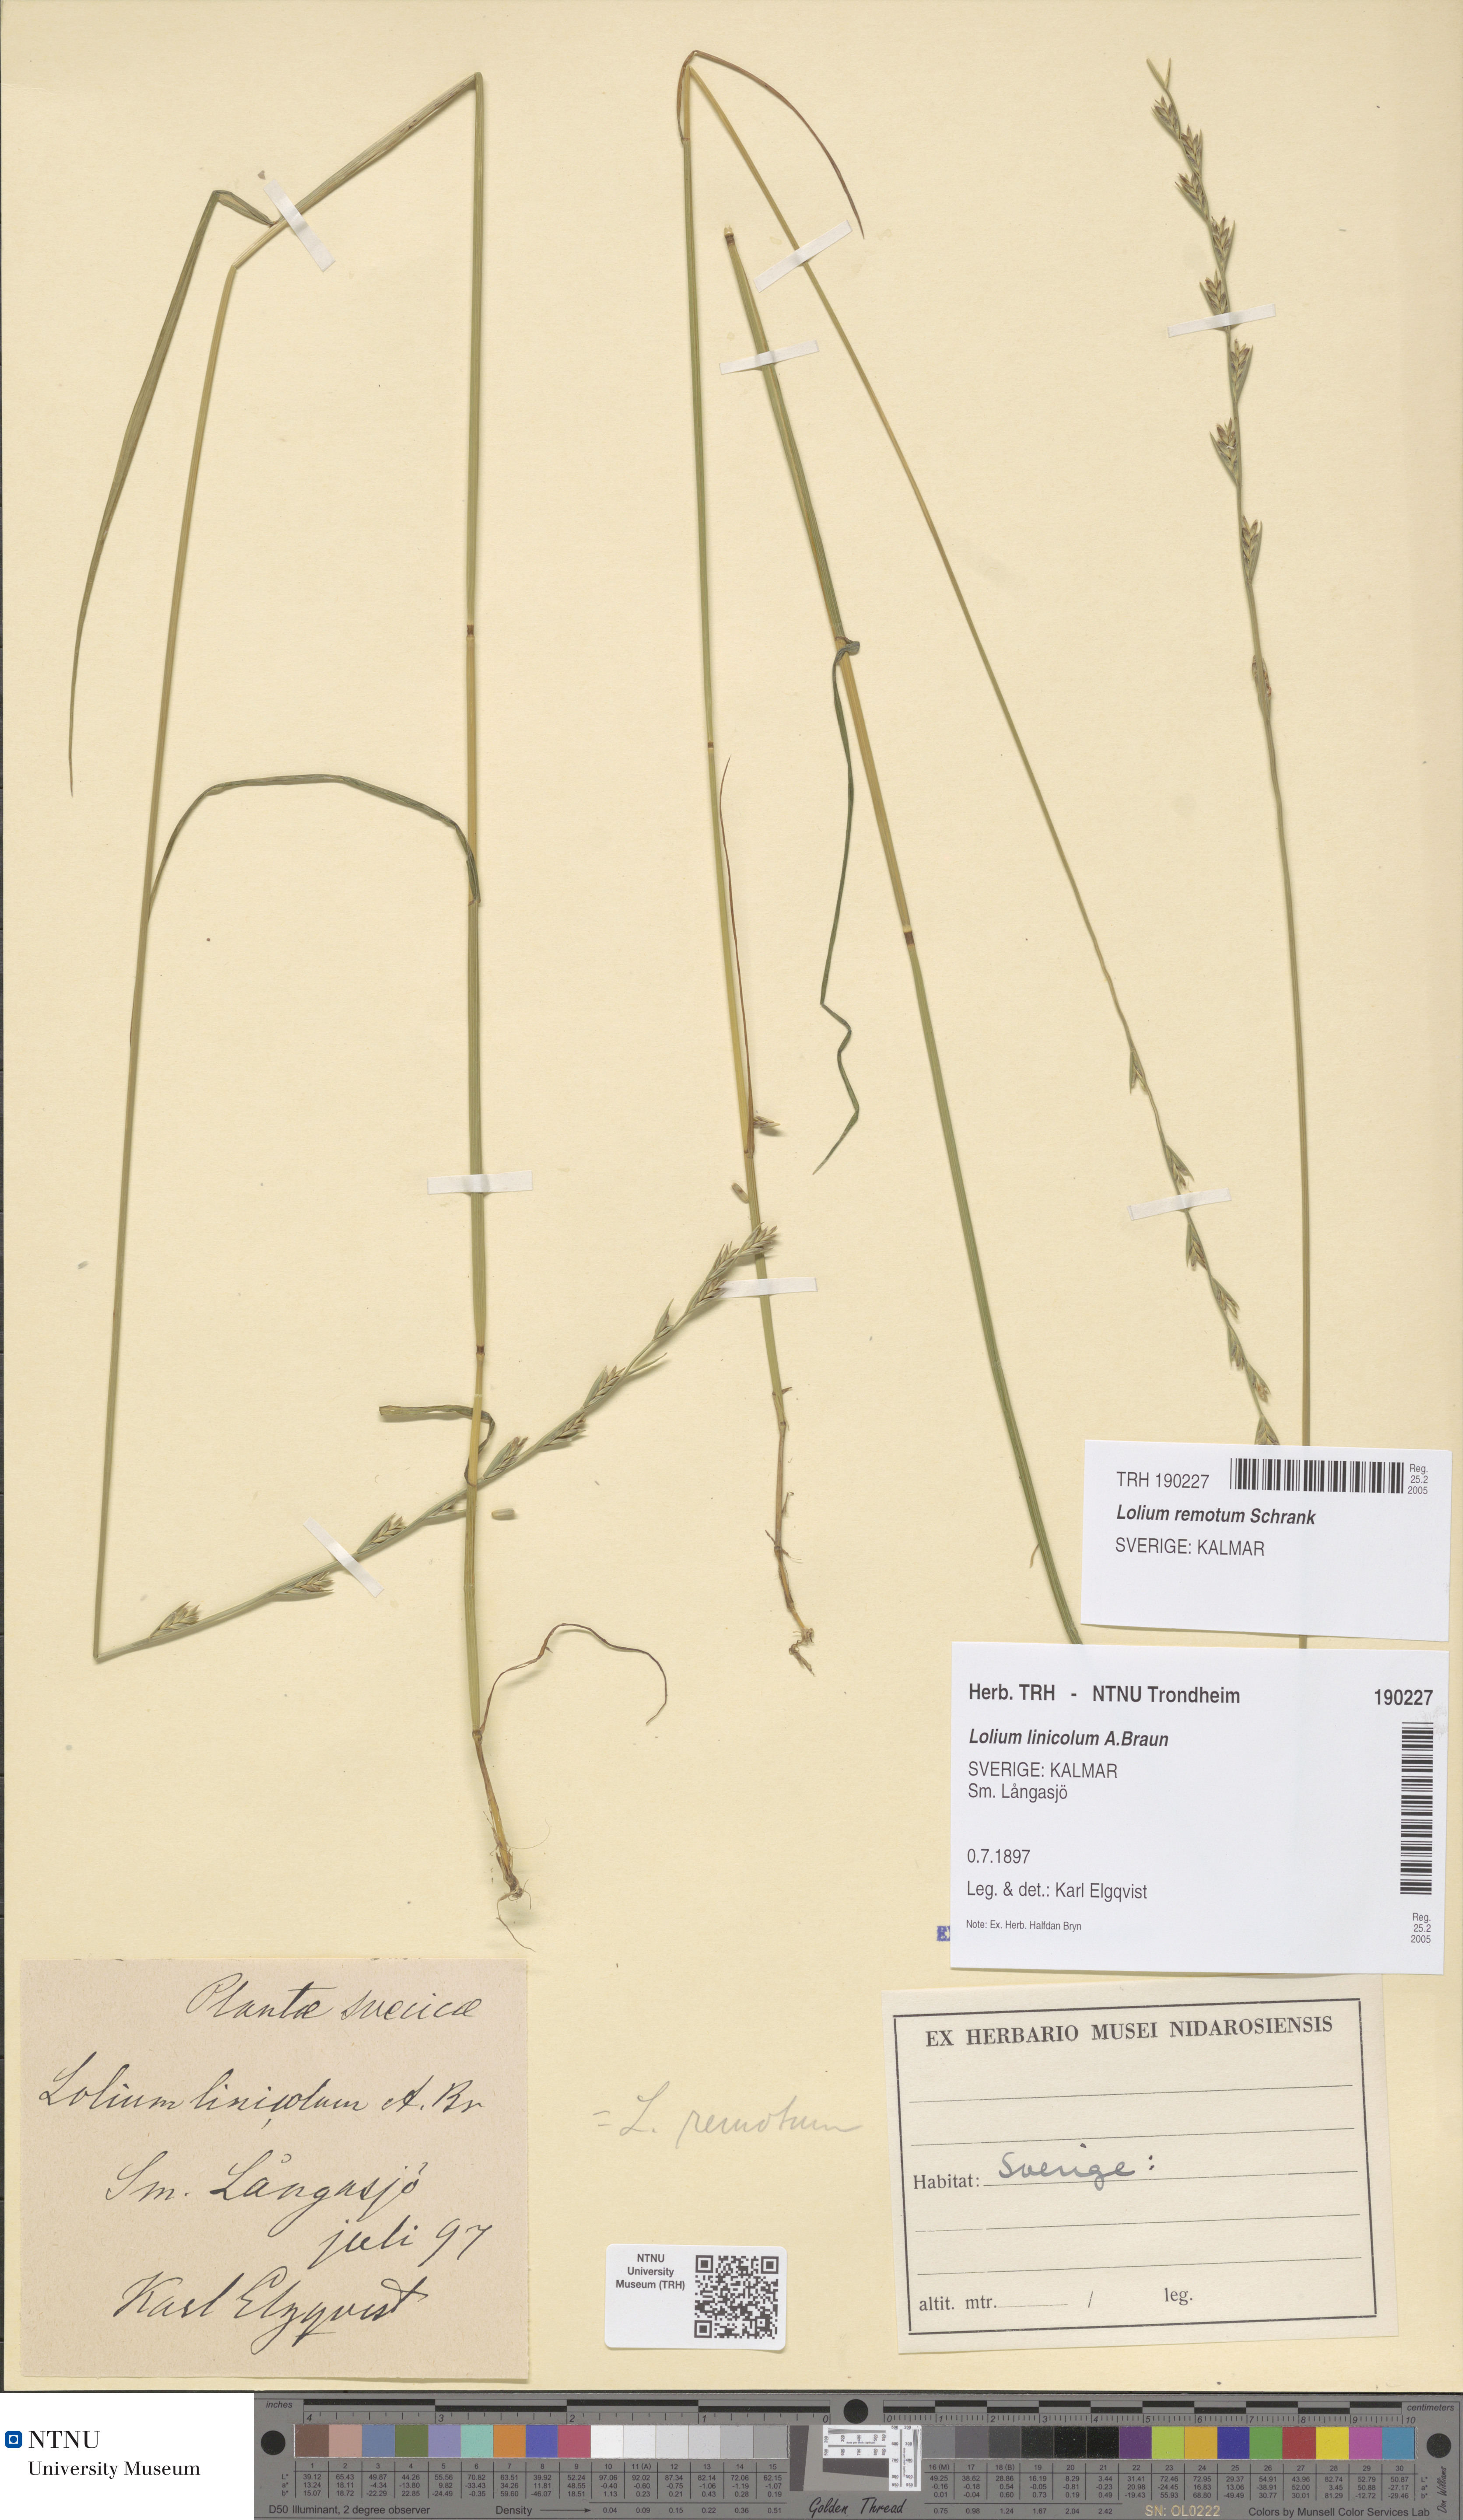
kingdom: Plantae
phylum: Tracheophyta
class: Liliopsida
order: Poales
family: Poaceae
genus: Lolium
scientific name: Lolium remotum
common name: Flaxfield rye-grass
